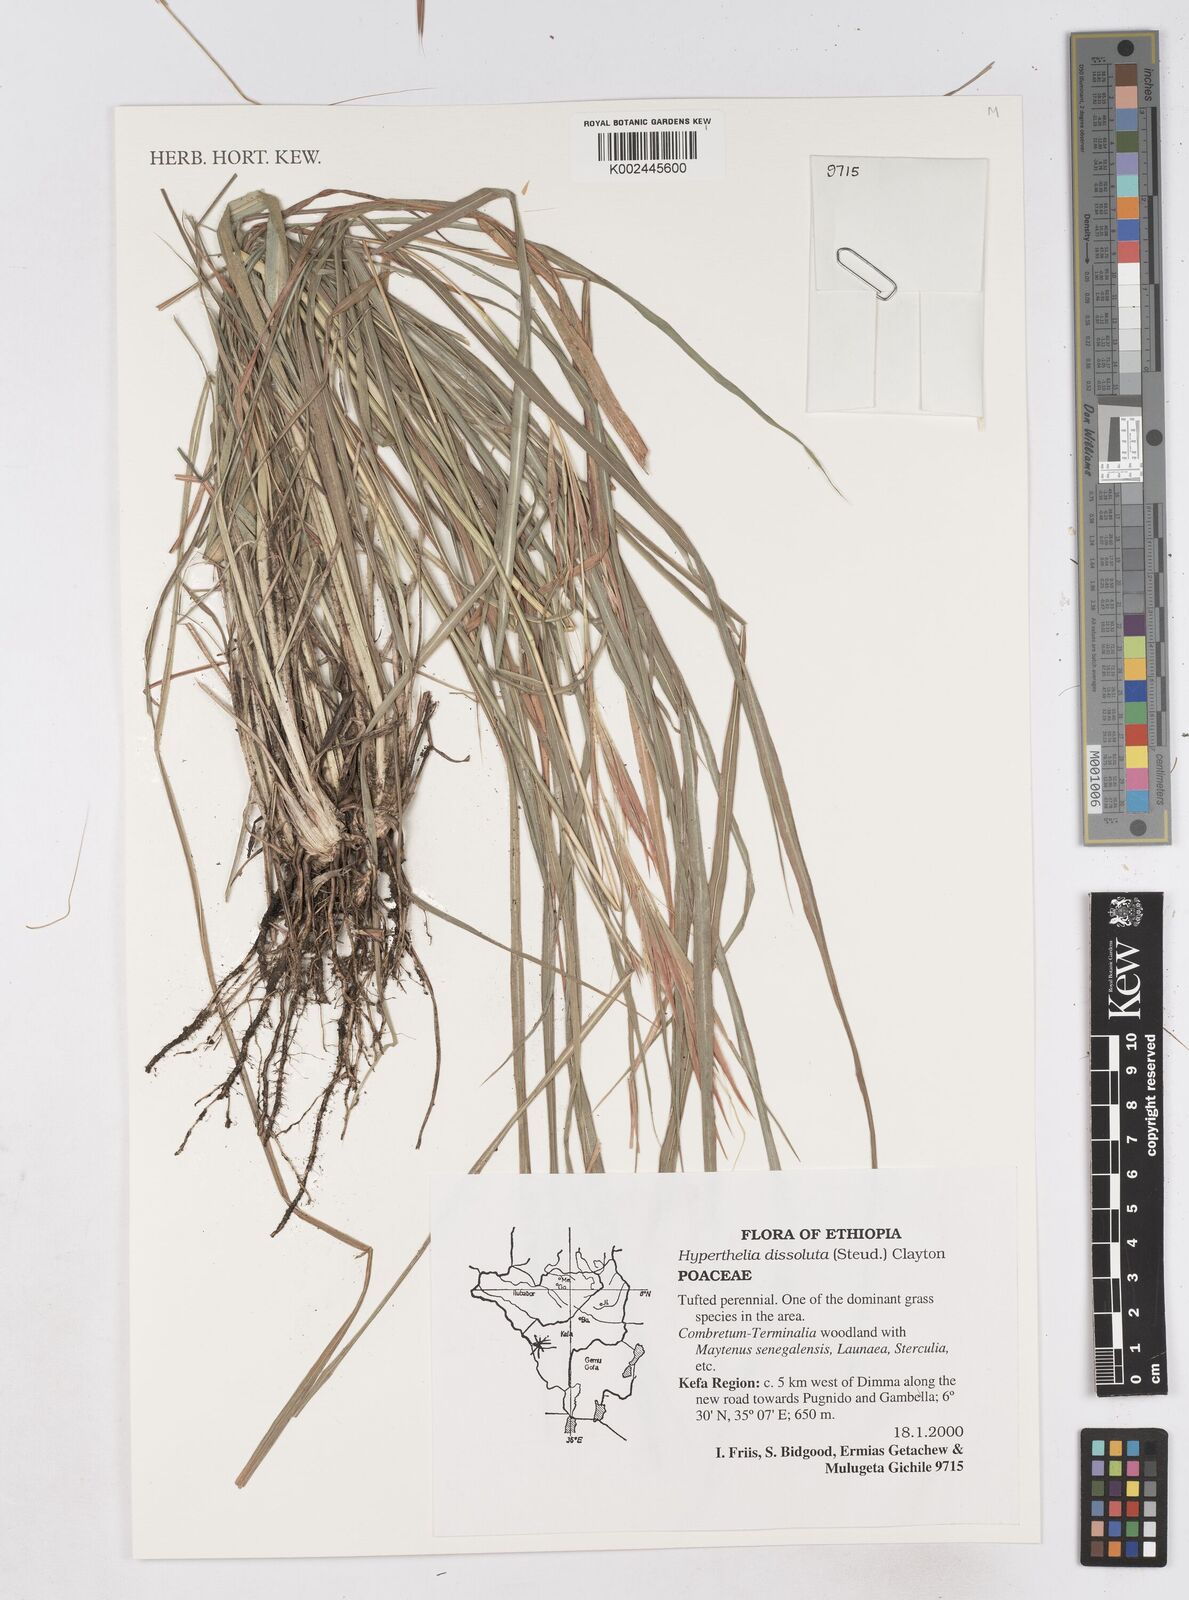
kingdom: Plantae
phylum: Tracheophyta
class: Liliopsida
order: Poales
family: Poaceae
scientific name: Poaceae
